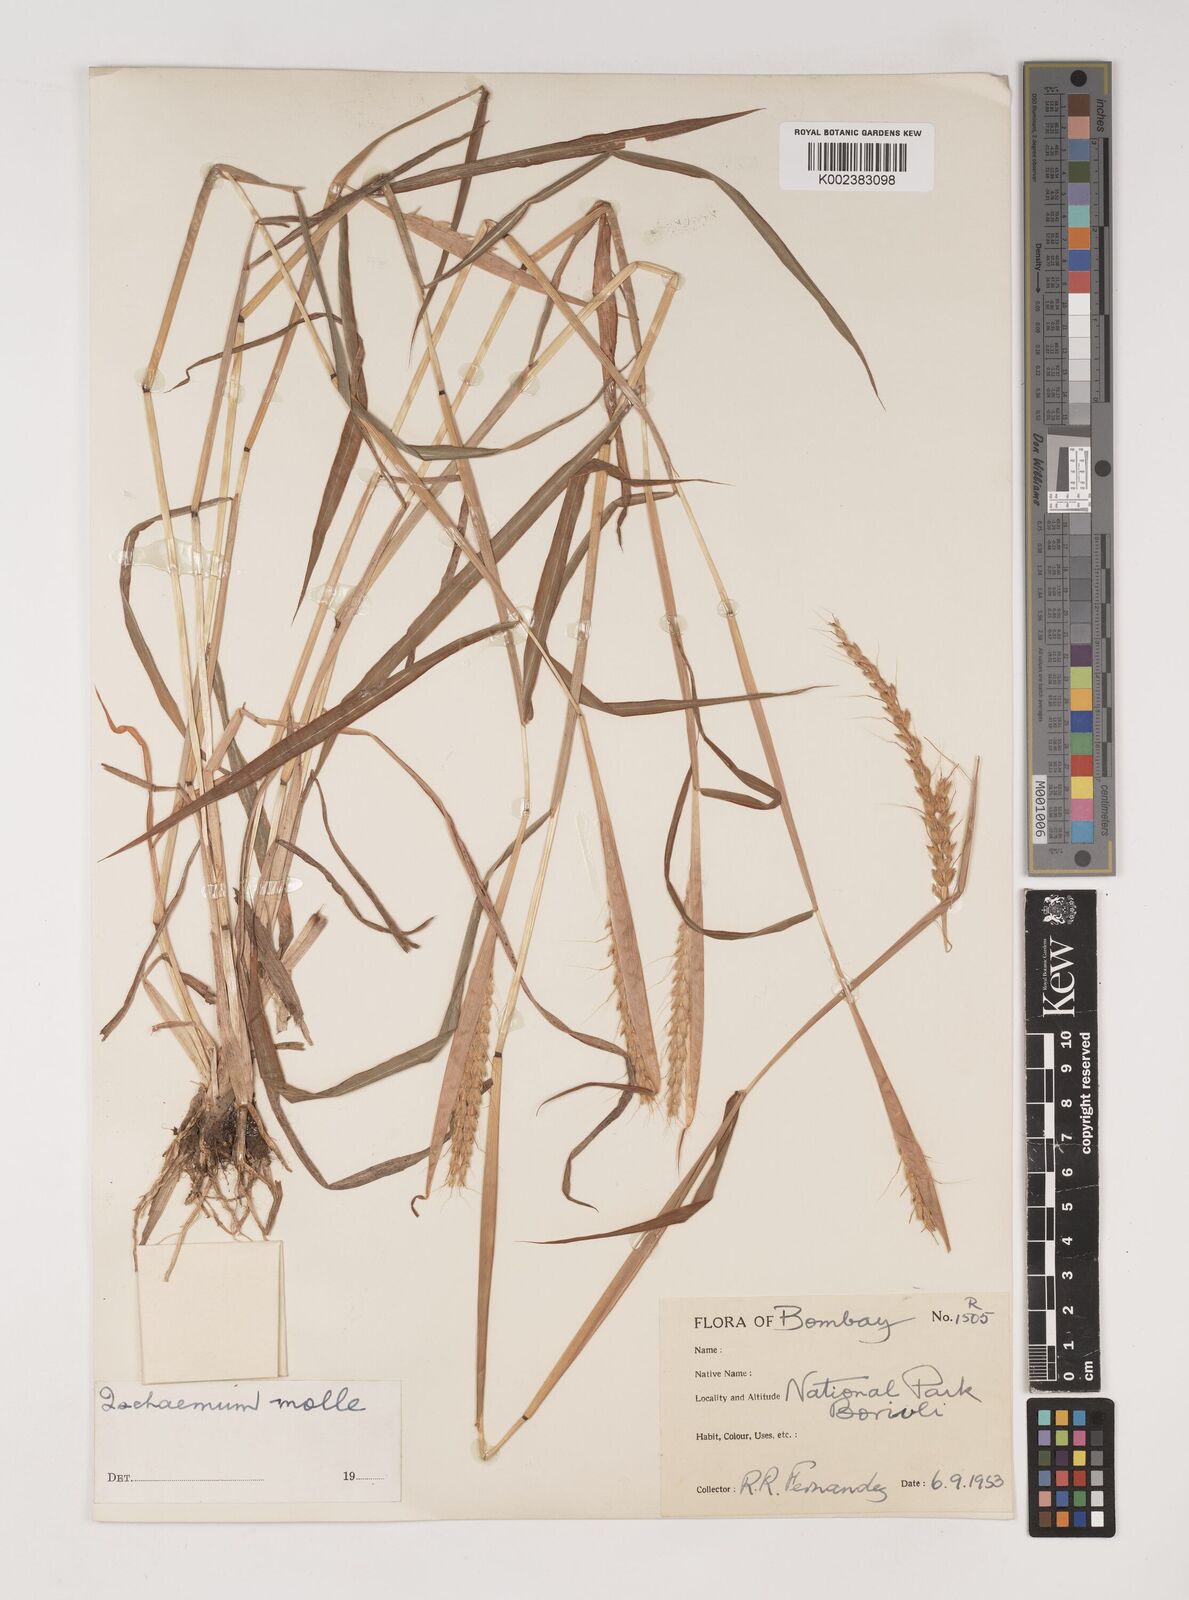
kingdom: Plantae
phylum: Tracheophyta
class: Liliopsida
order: Poales
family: Poaceae
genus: Ischaemum
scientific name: Ischaemum molle
